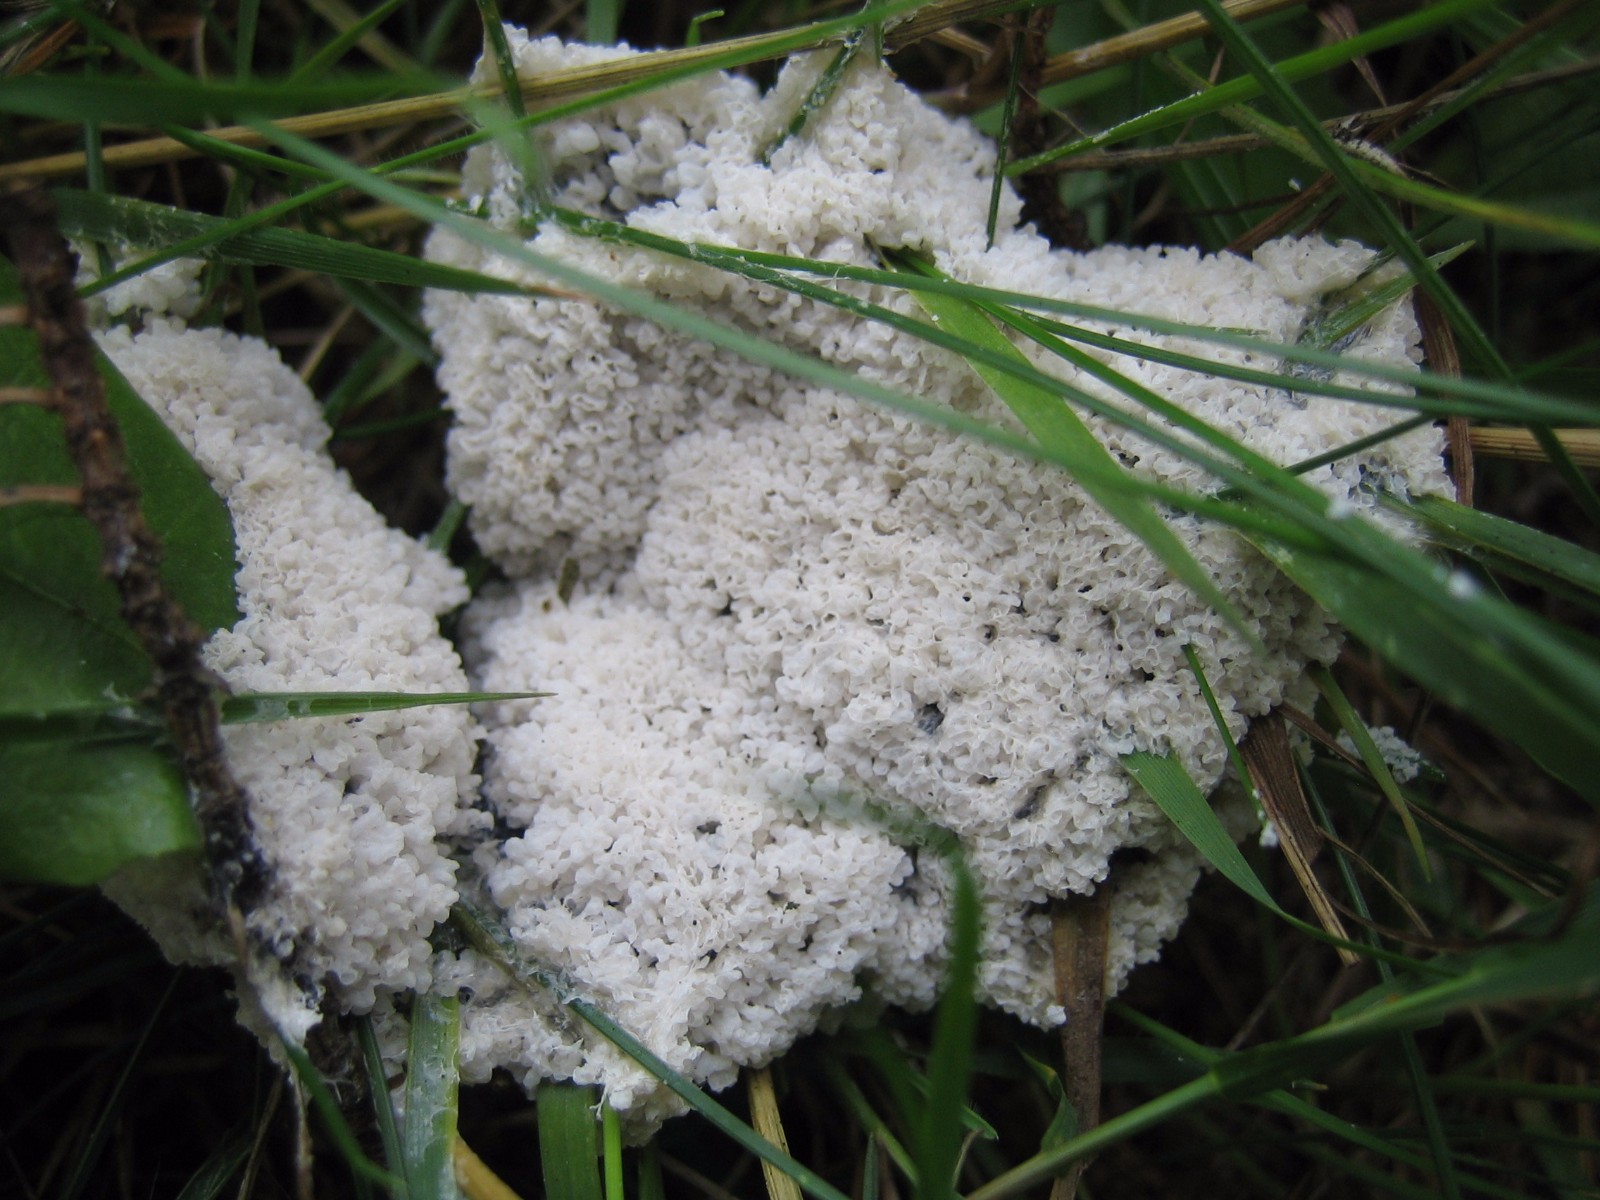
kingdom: Protozoa
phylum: Mycetozoa
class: Myxomycetes
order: Physarales
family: Physaraceae
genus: Didymium
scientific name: Didymium
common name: urteskum
